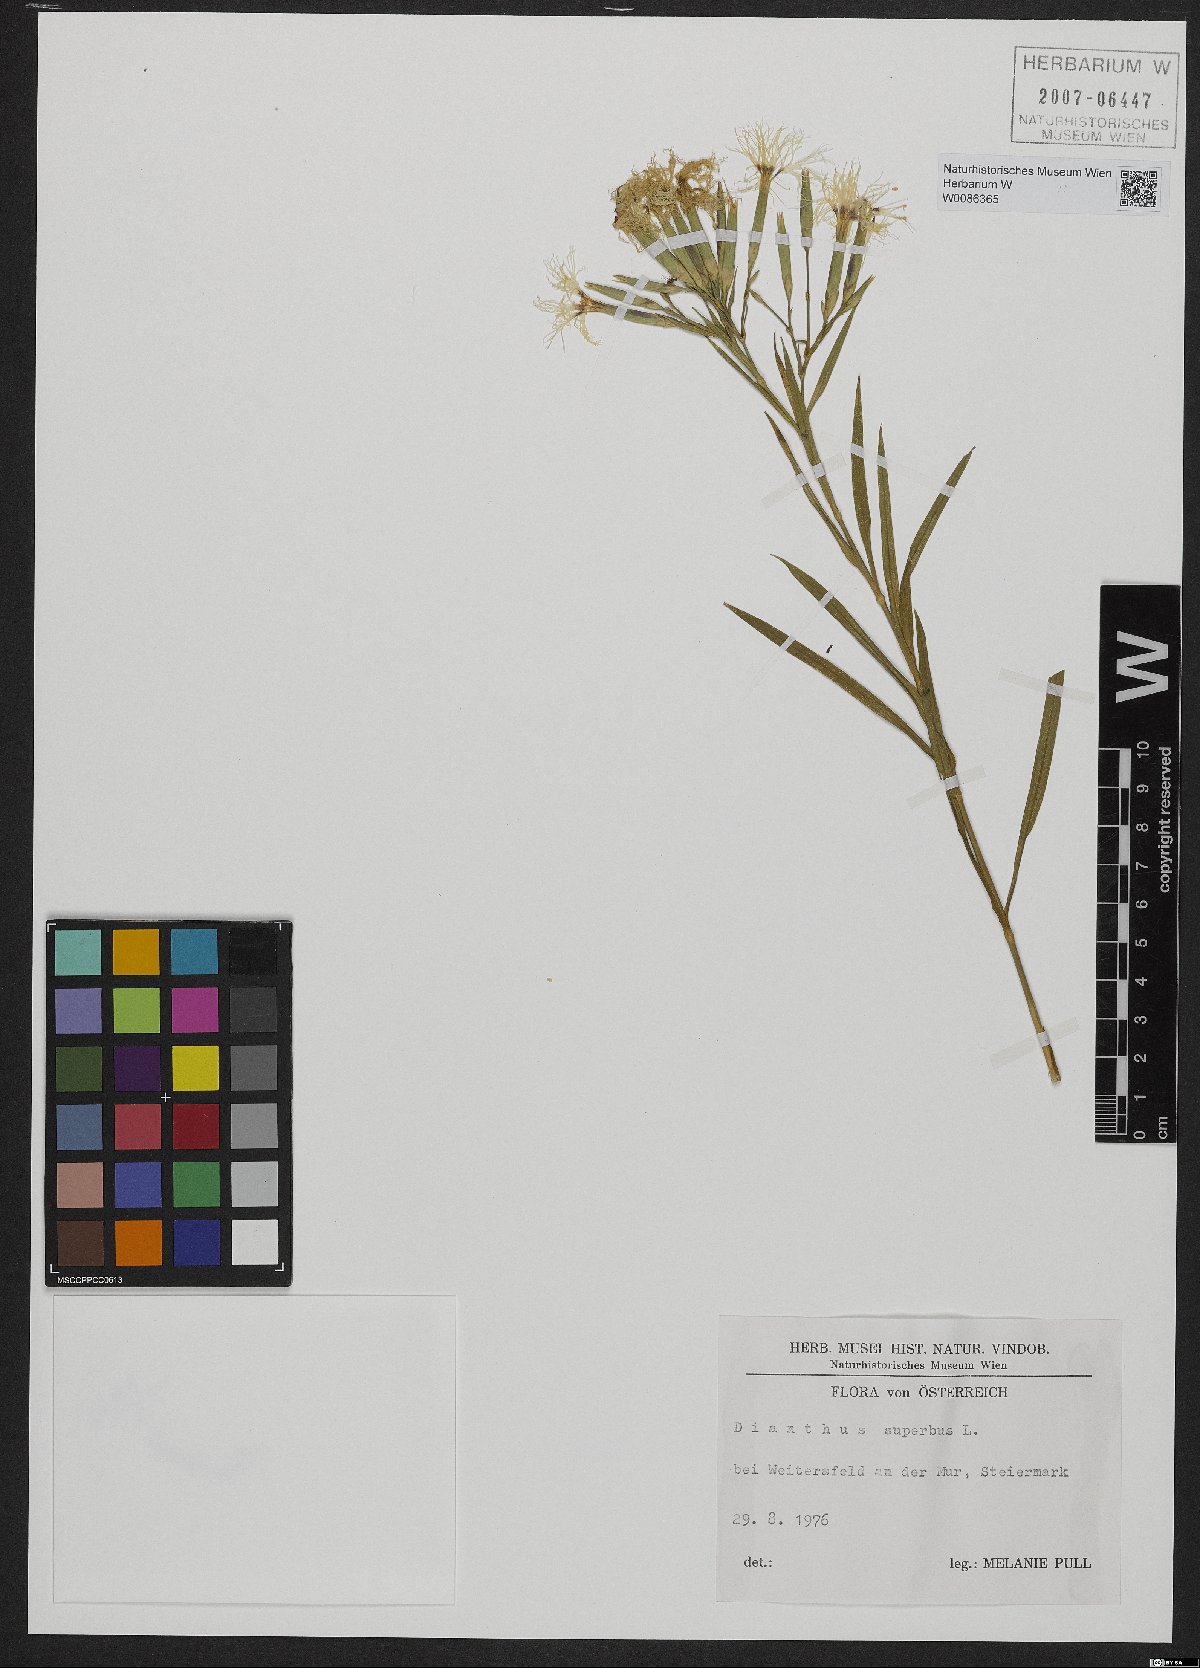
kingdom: Plantae
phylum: Tracheophyta
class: Magnoliopsida
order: Caryophyllales
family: Caryophyllaceae
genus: Dianthus
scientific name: Dianthus superbus
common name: Fringed pink
